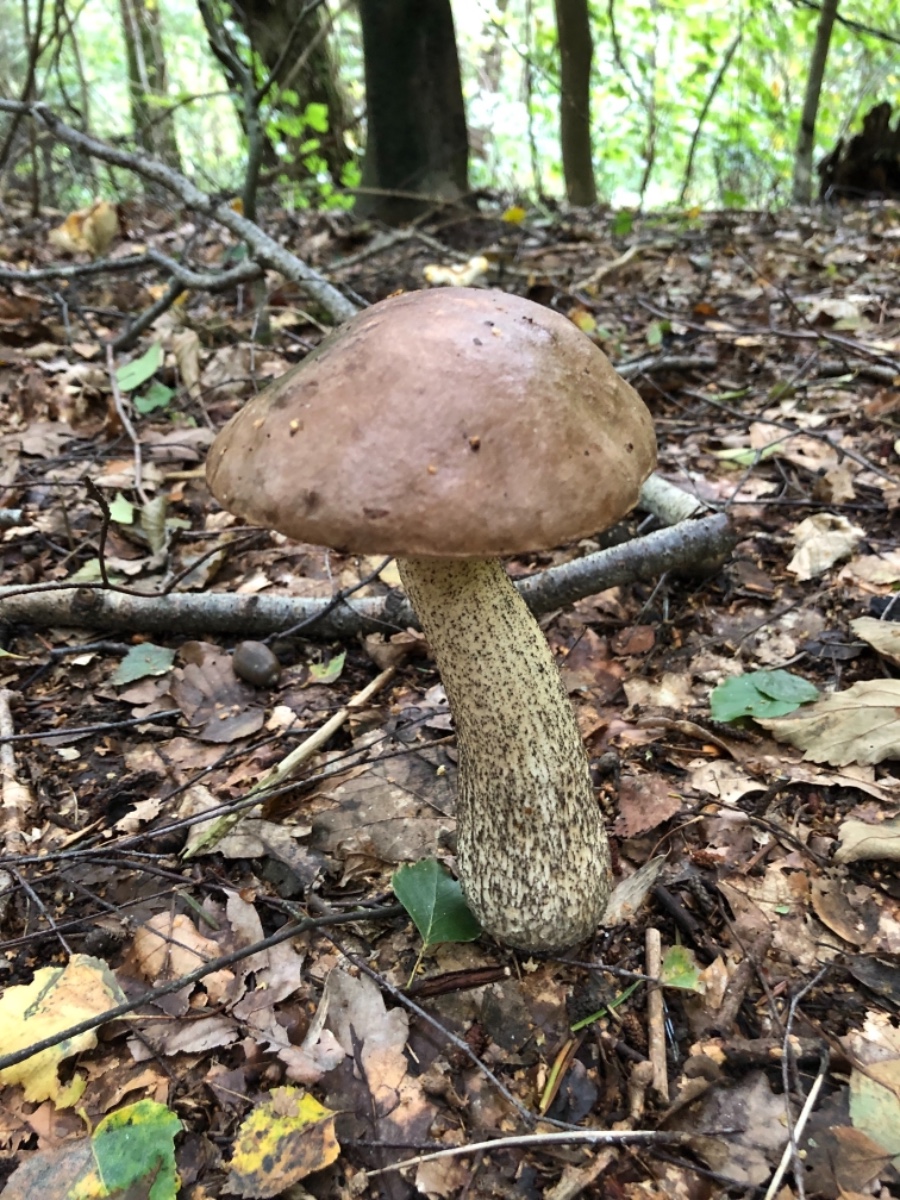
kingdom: Fungi
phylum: Basidiomycota
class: Agaricomycetes
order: Boletales
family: Boletaceae
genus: Leccinum
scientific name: Leccinum scabrum
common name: brun skælrørhat
